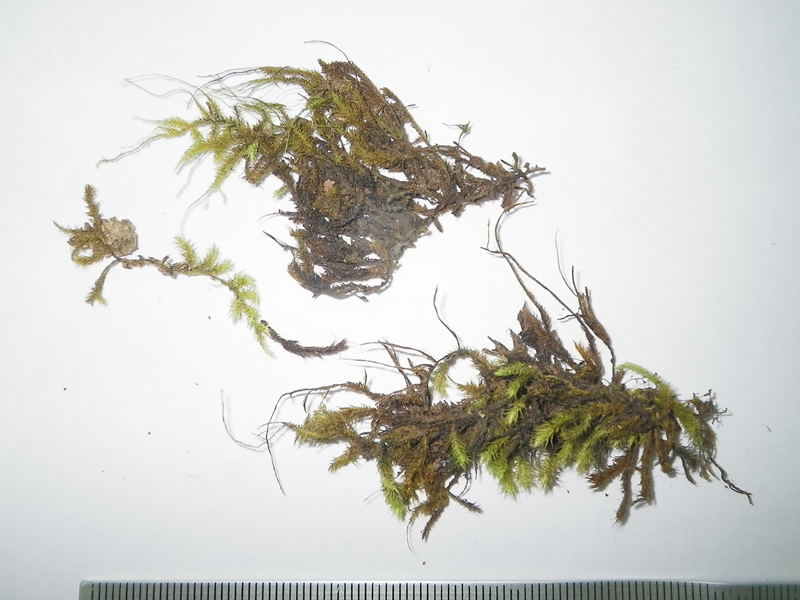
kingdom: Plantae
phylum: Bryophyta
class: Bryopsida
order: Hypnales
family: Meteoriaceae
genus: Trachypus
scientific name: Trachypus bicolor
